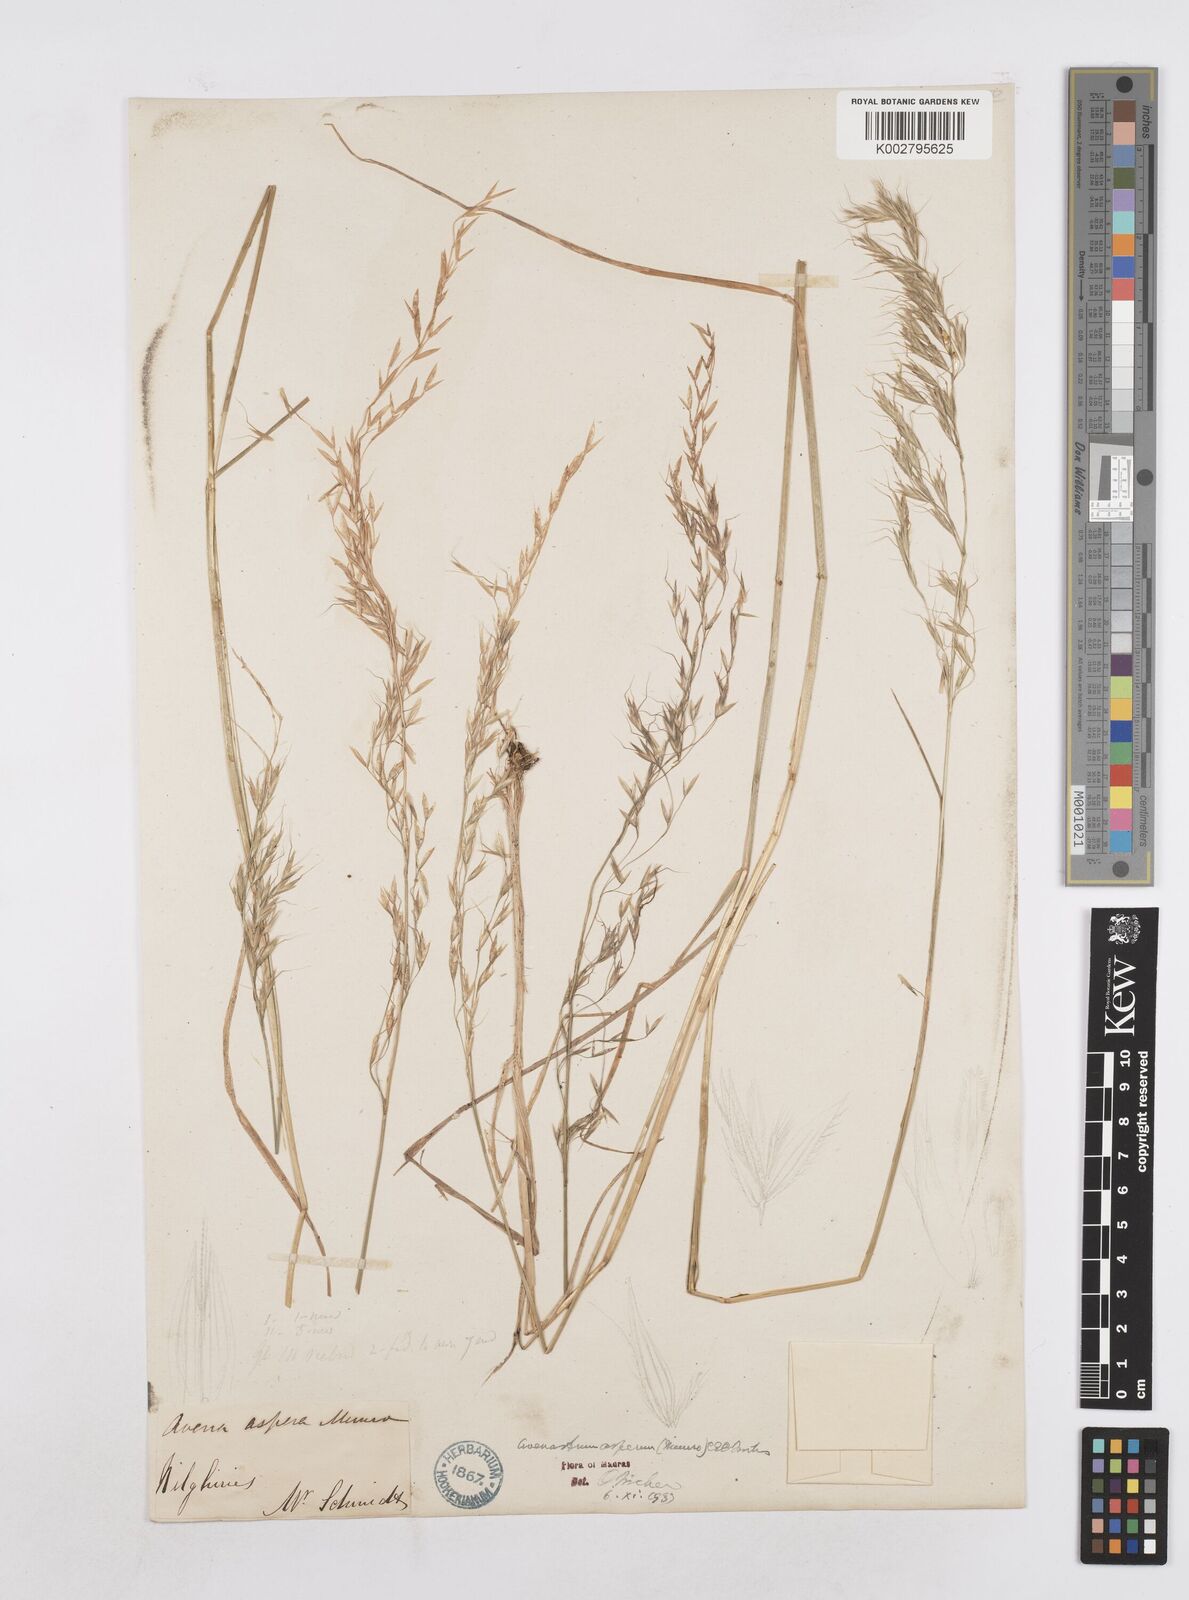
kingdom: Plantae
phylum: Tracheophyta
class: Liliopsida
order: Poales
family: Poaceae
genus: Helictotrichon
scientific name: Helictotrichon
